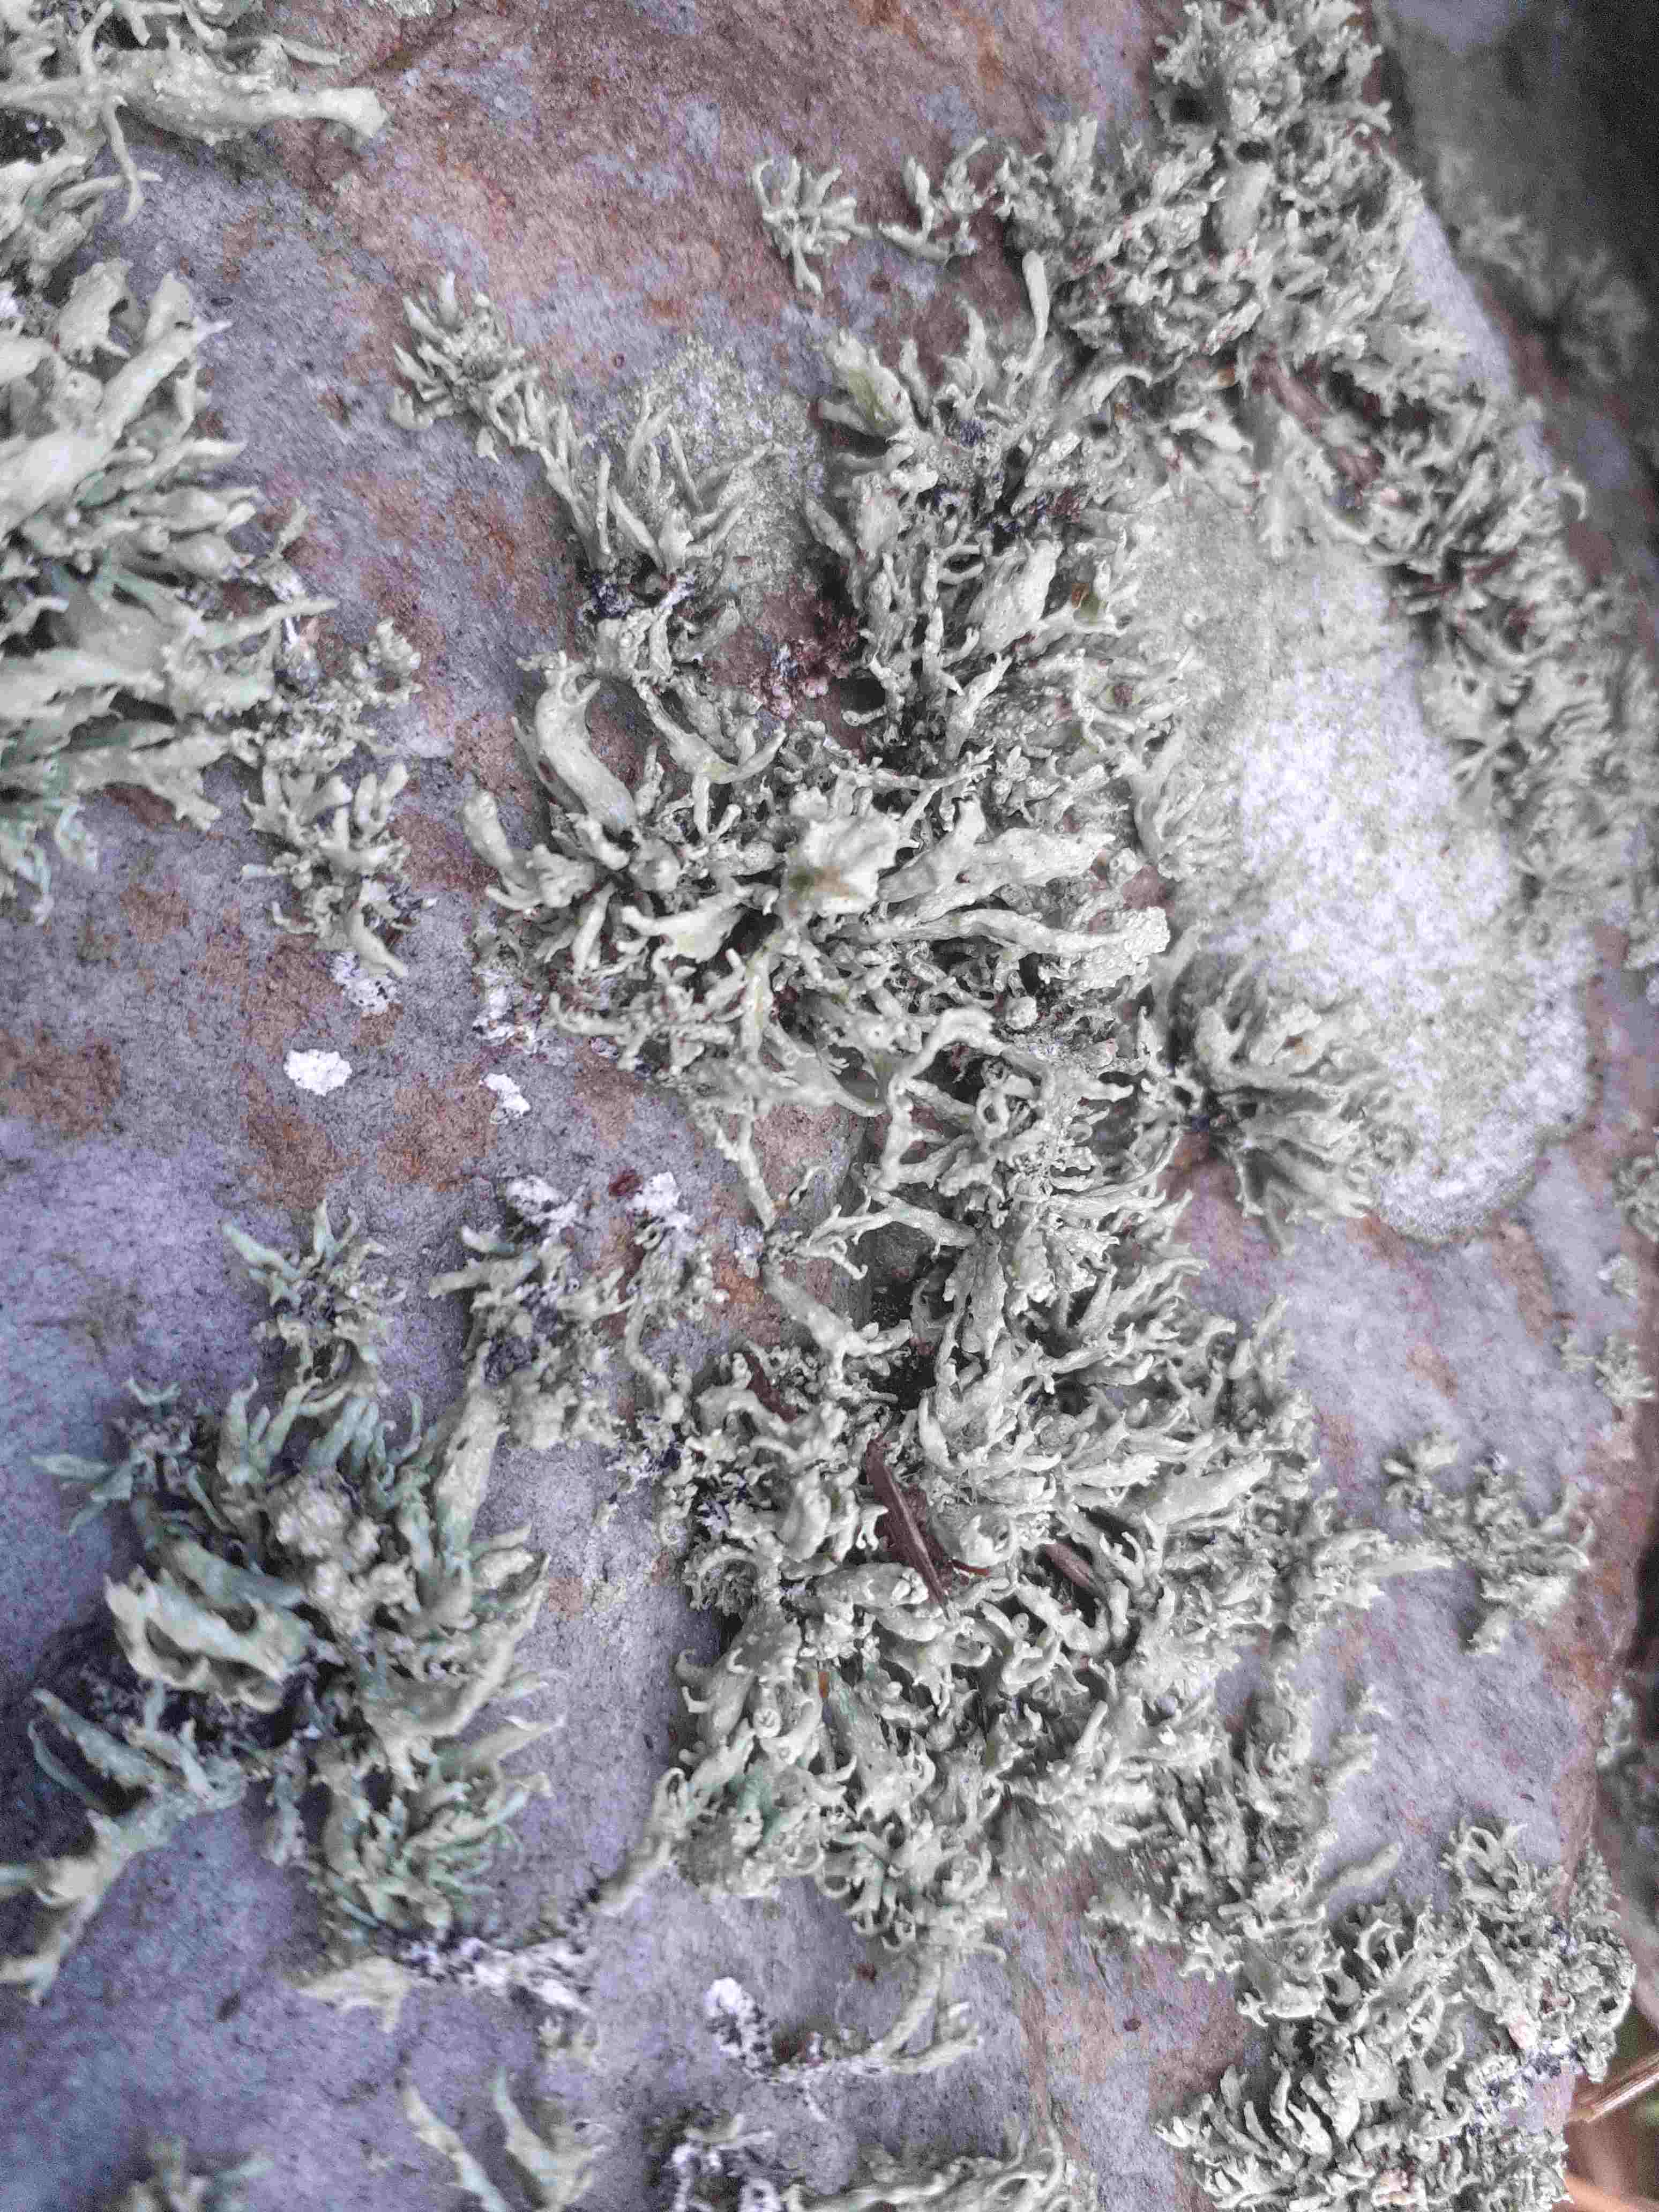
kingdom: Fungi
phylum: Ascomycota
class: Lecanoromycetes
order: Lecanorales
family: Ramalinaceae
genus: Ramalina
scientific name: Ramalina siliquosa
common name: klippe-grenlav
